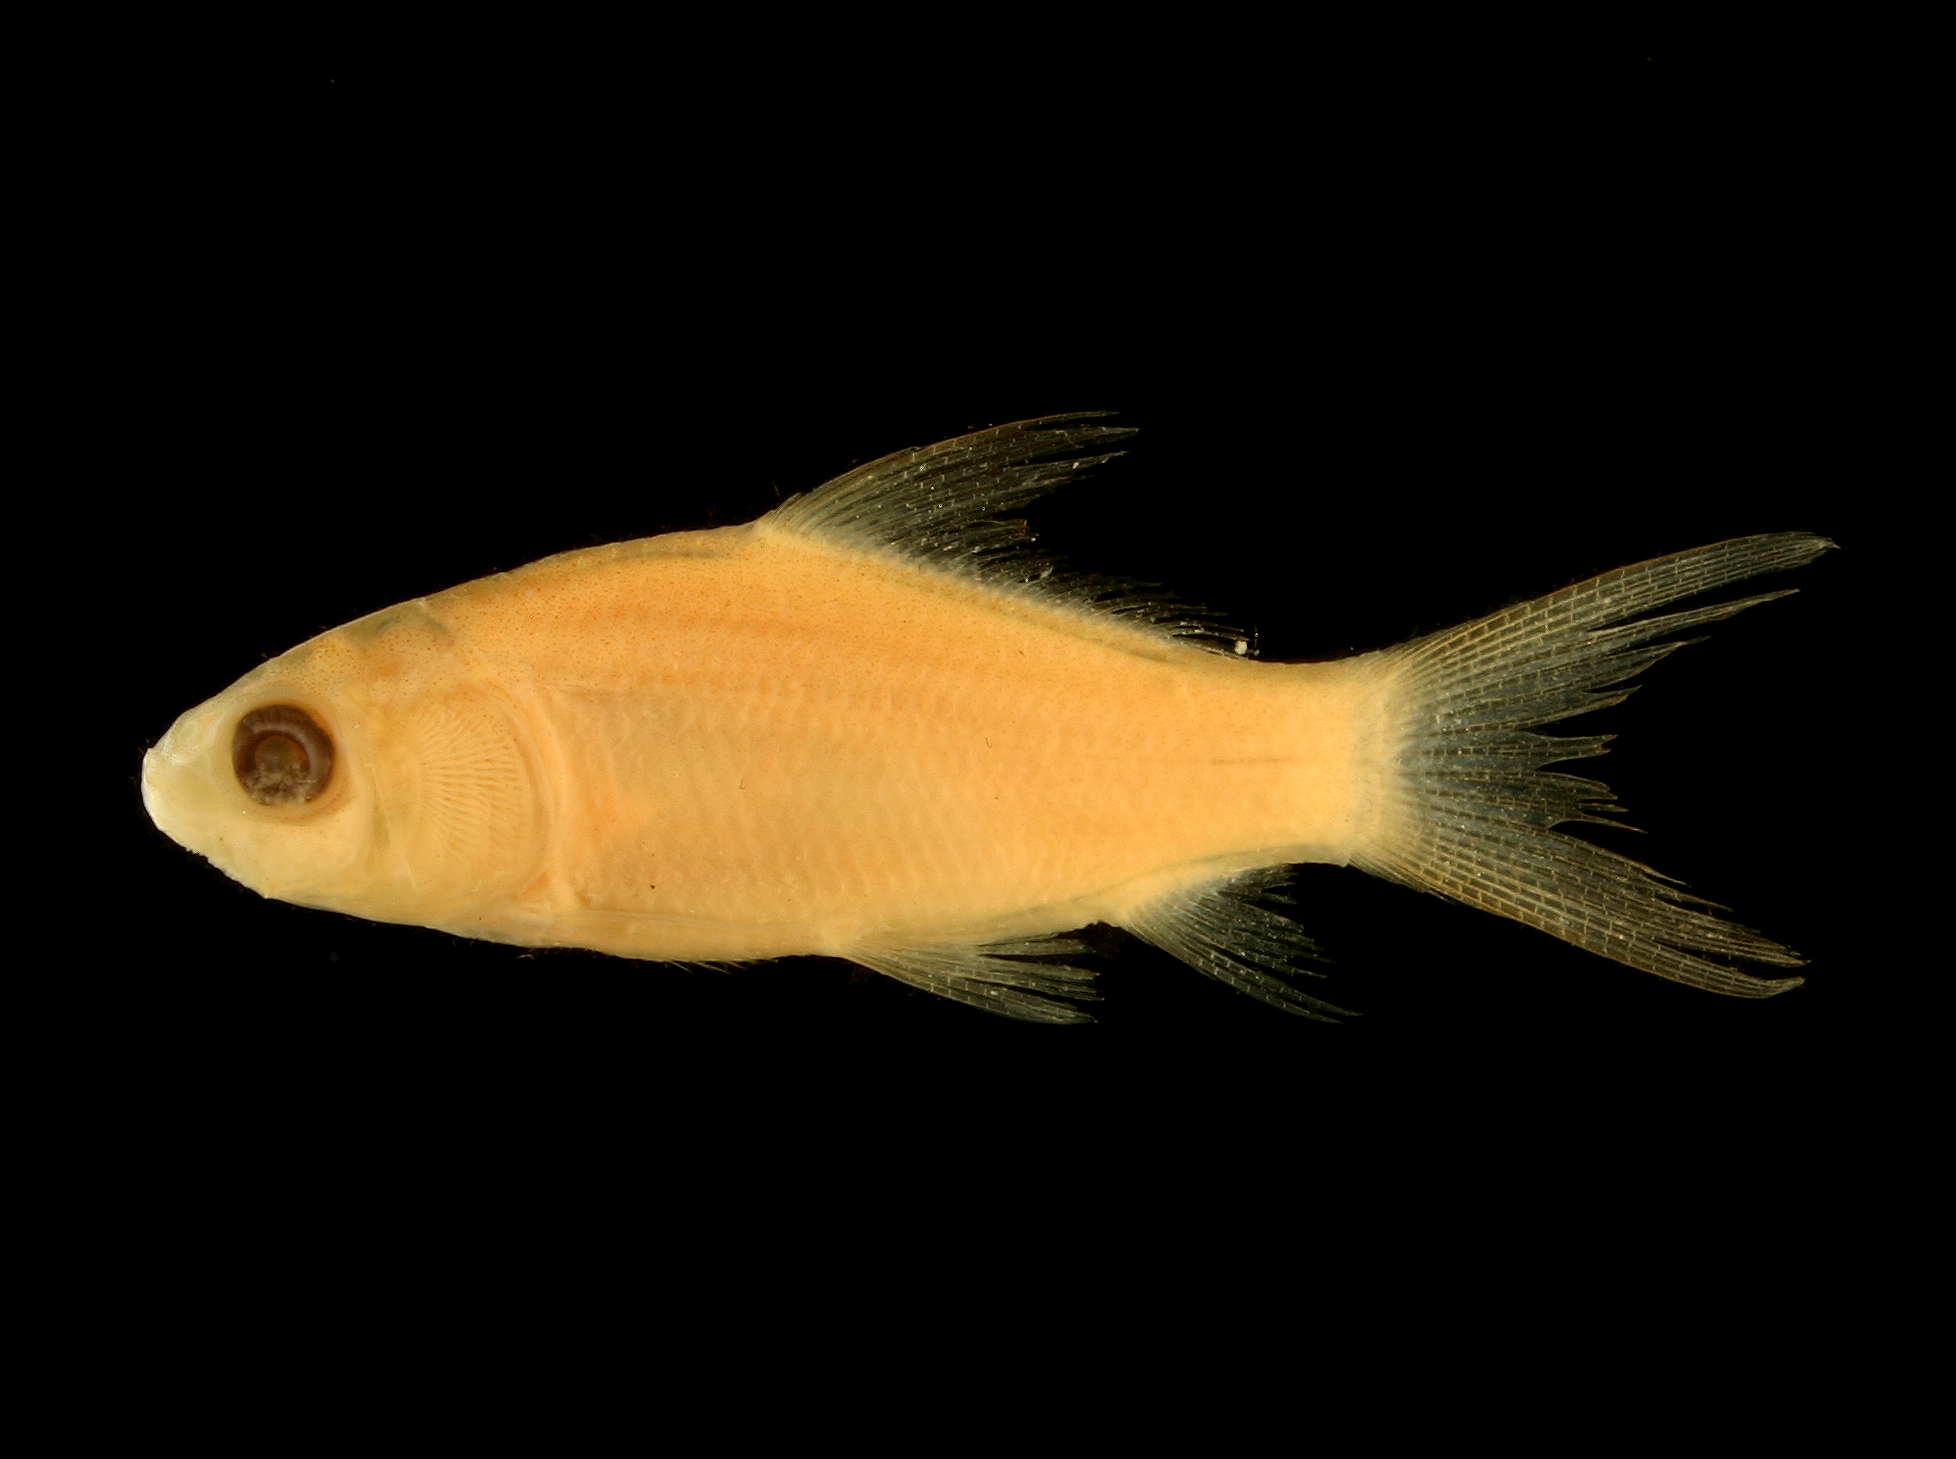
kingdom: Animalia
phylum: Chordata
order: Cypriniformes
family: Catostomidae
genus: Ictiobus
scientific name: Ictiobus niger
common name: Black buffalo
